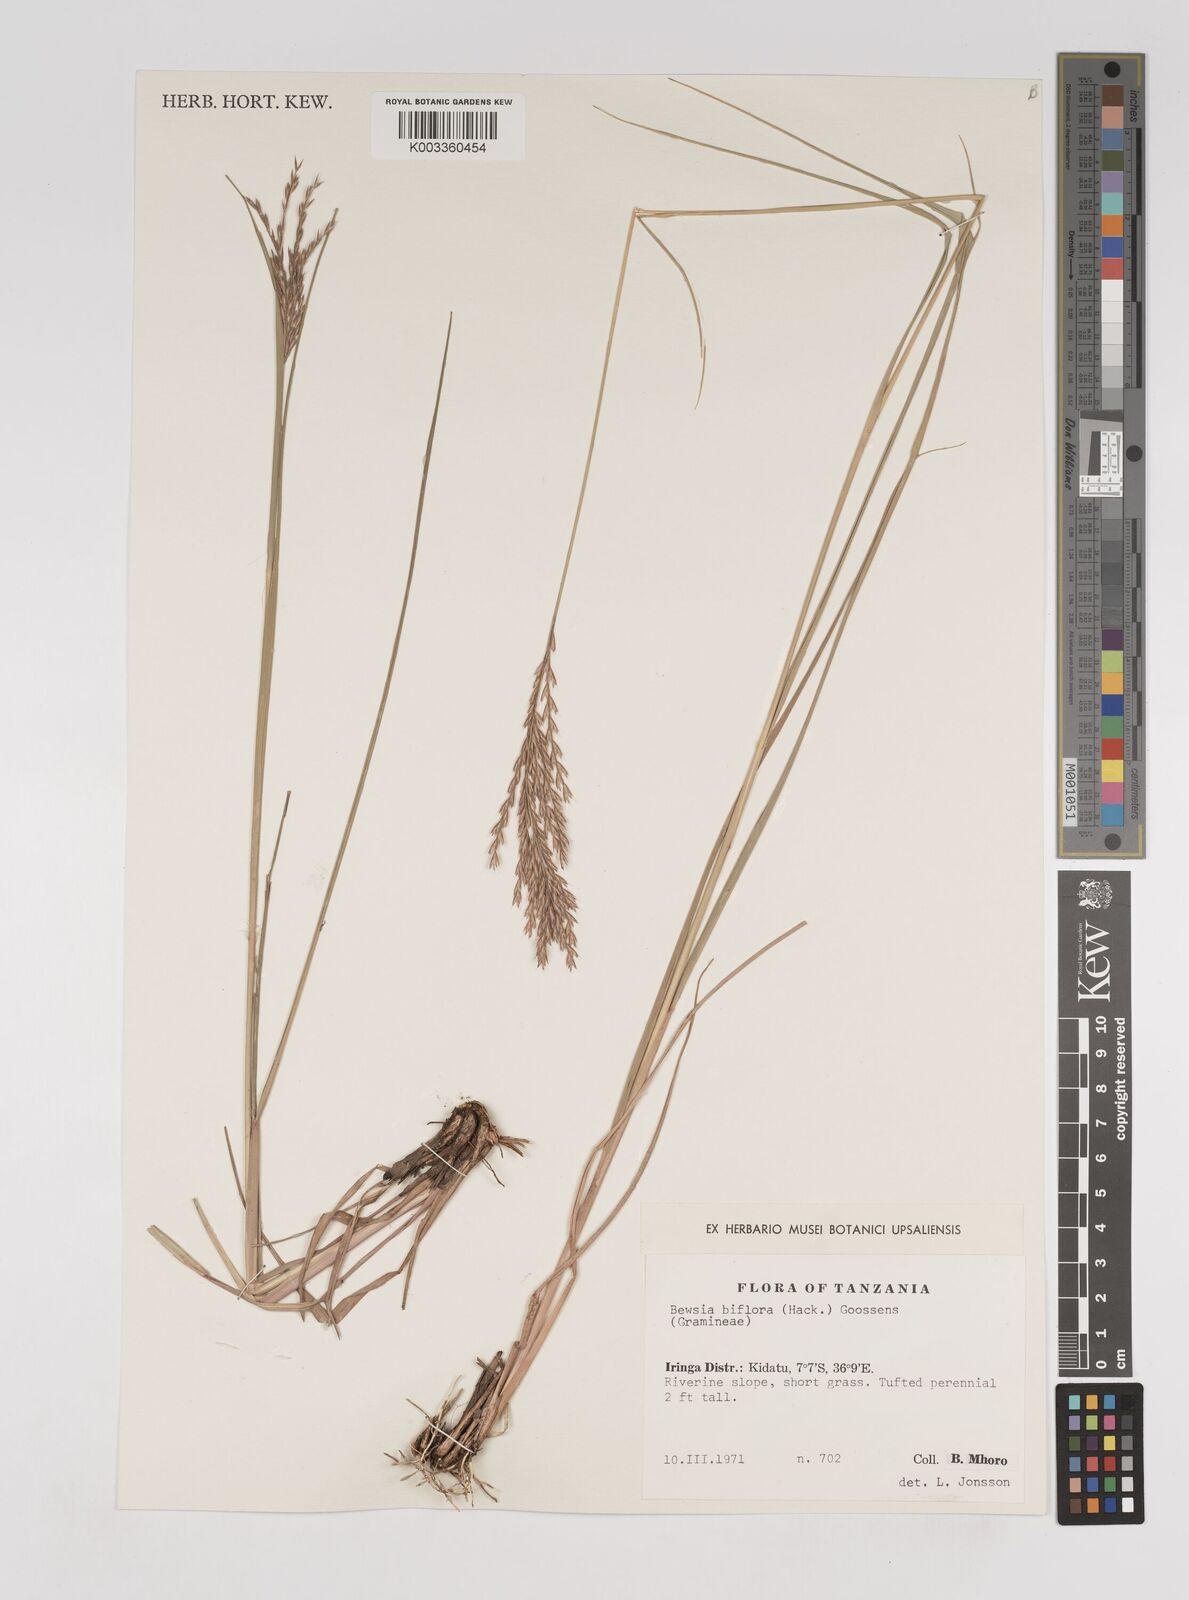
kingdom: Plantae
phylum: Tracheophyta
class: Liliopsida
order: Poales
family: Poaceae
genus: Bewsia
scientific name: Bewsia biflora
